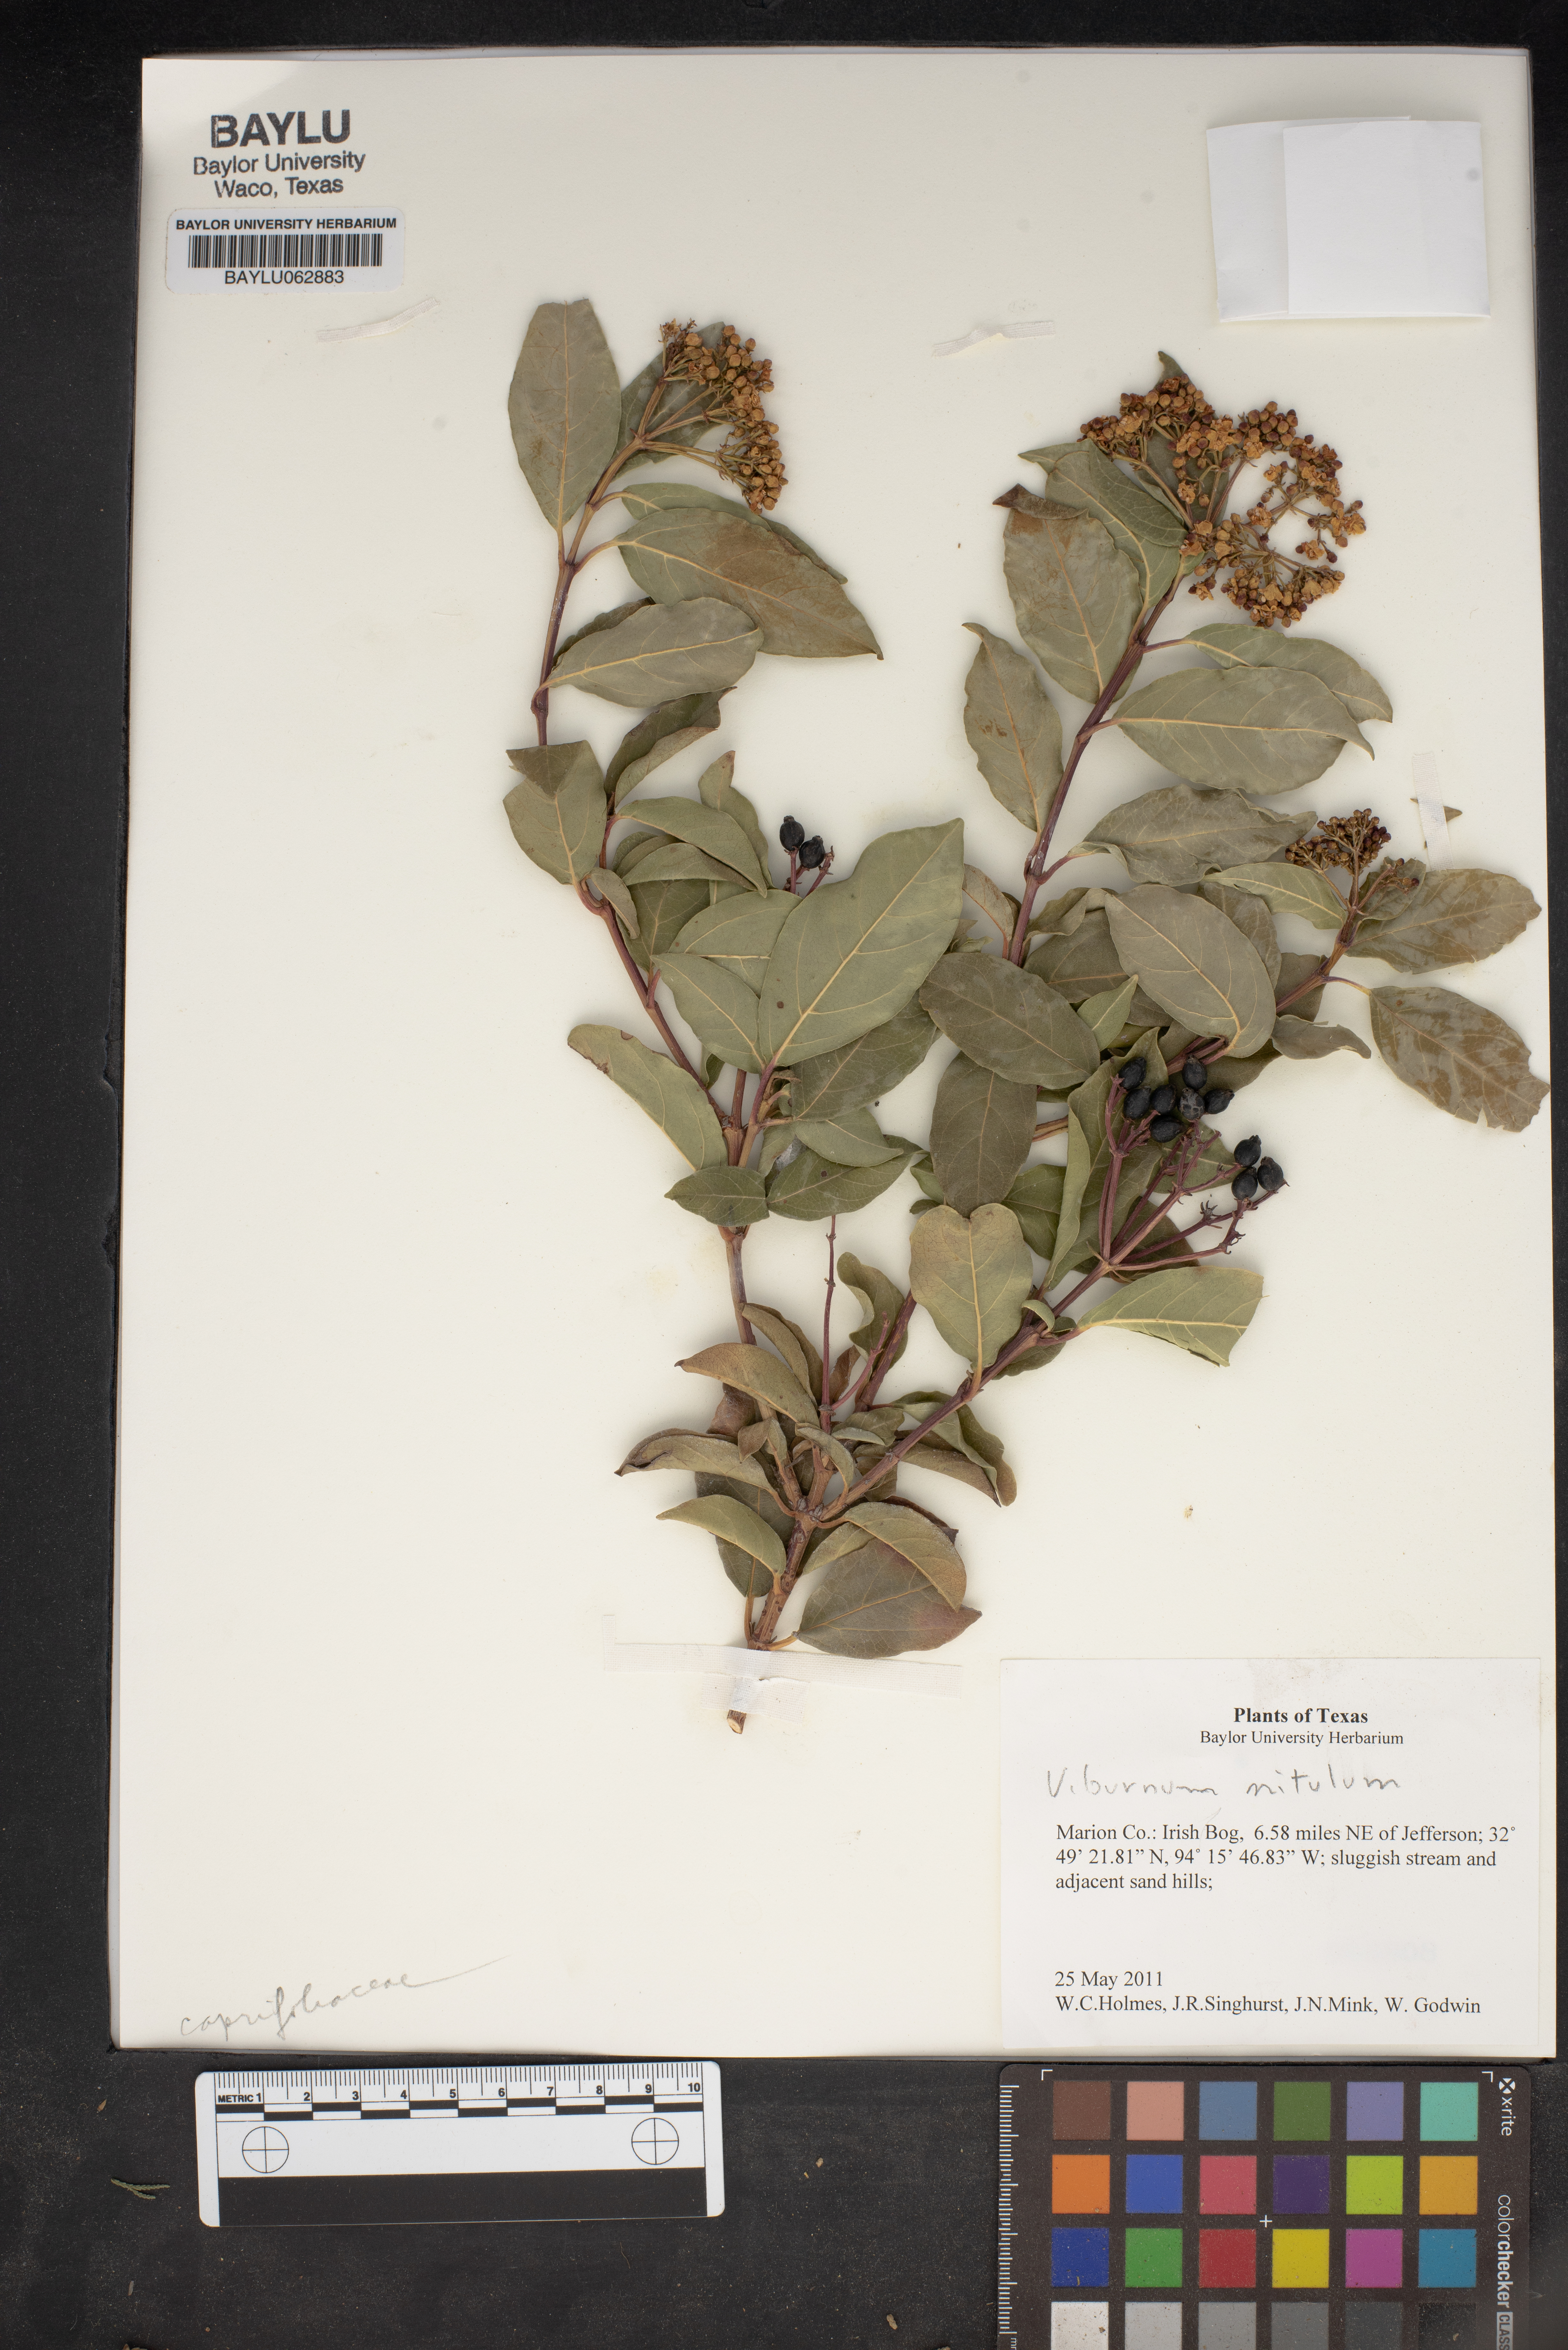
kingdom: Plantae
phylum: Tracheophyta
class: Magnoliopsida
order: Dipsacales
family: Viburnaceae
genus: Viburnum
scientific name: Viburnum cassinoides
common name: Swamp haw
